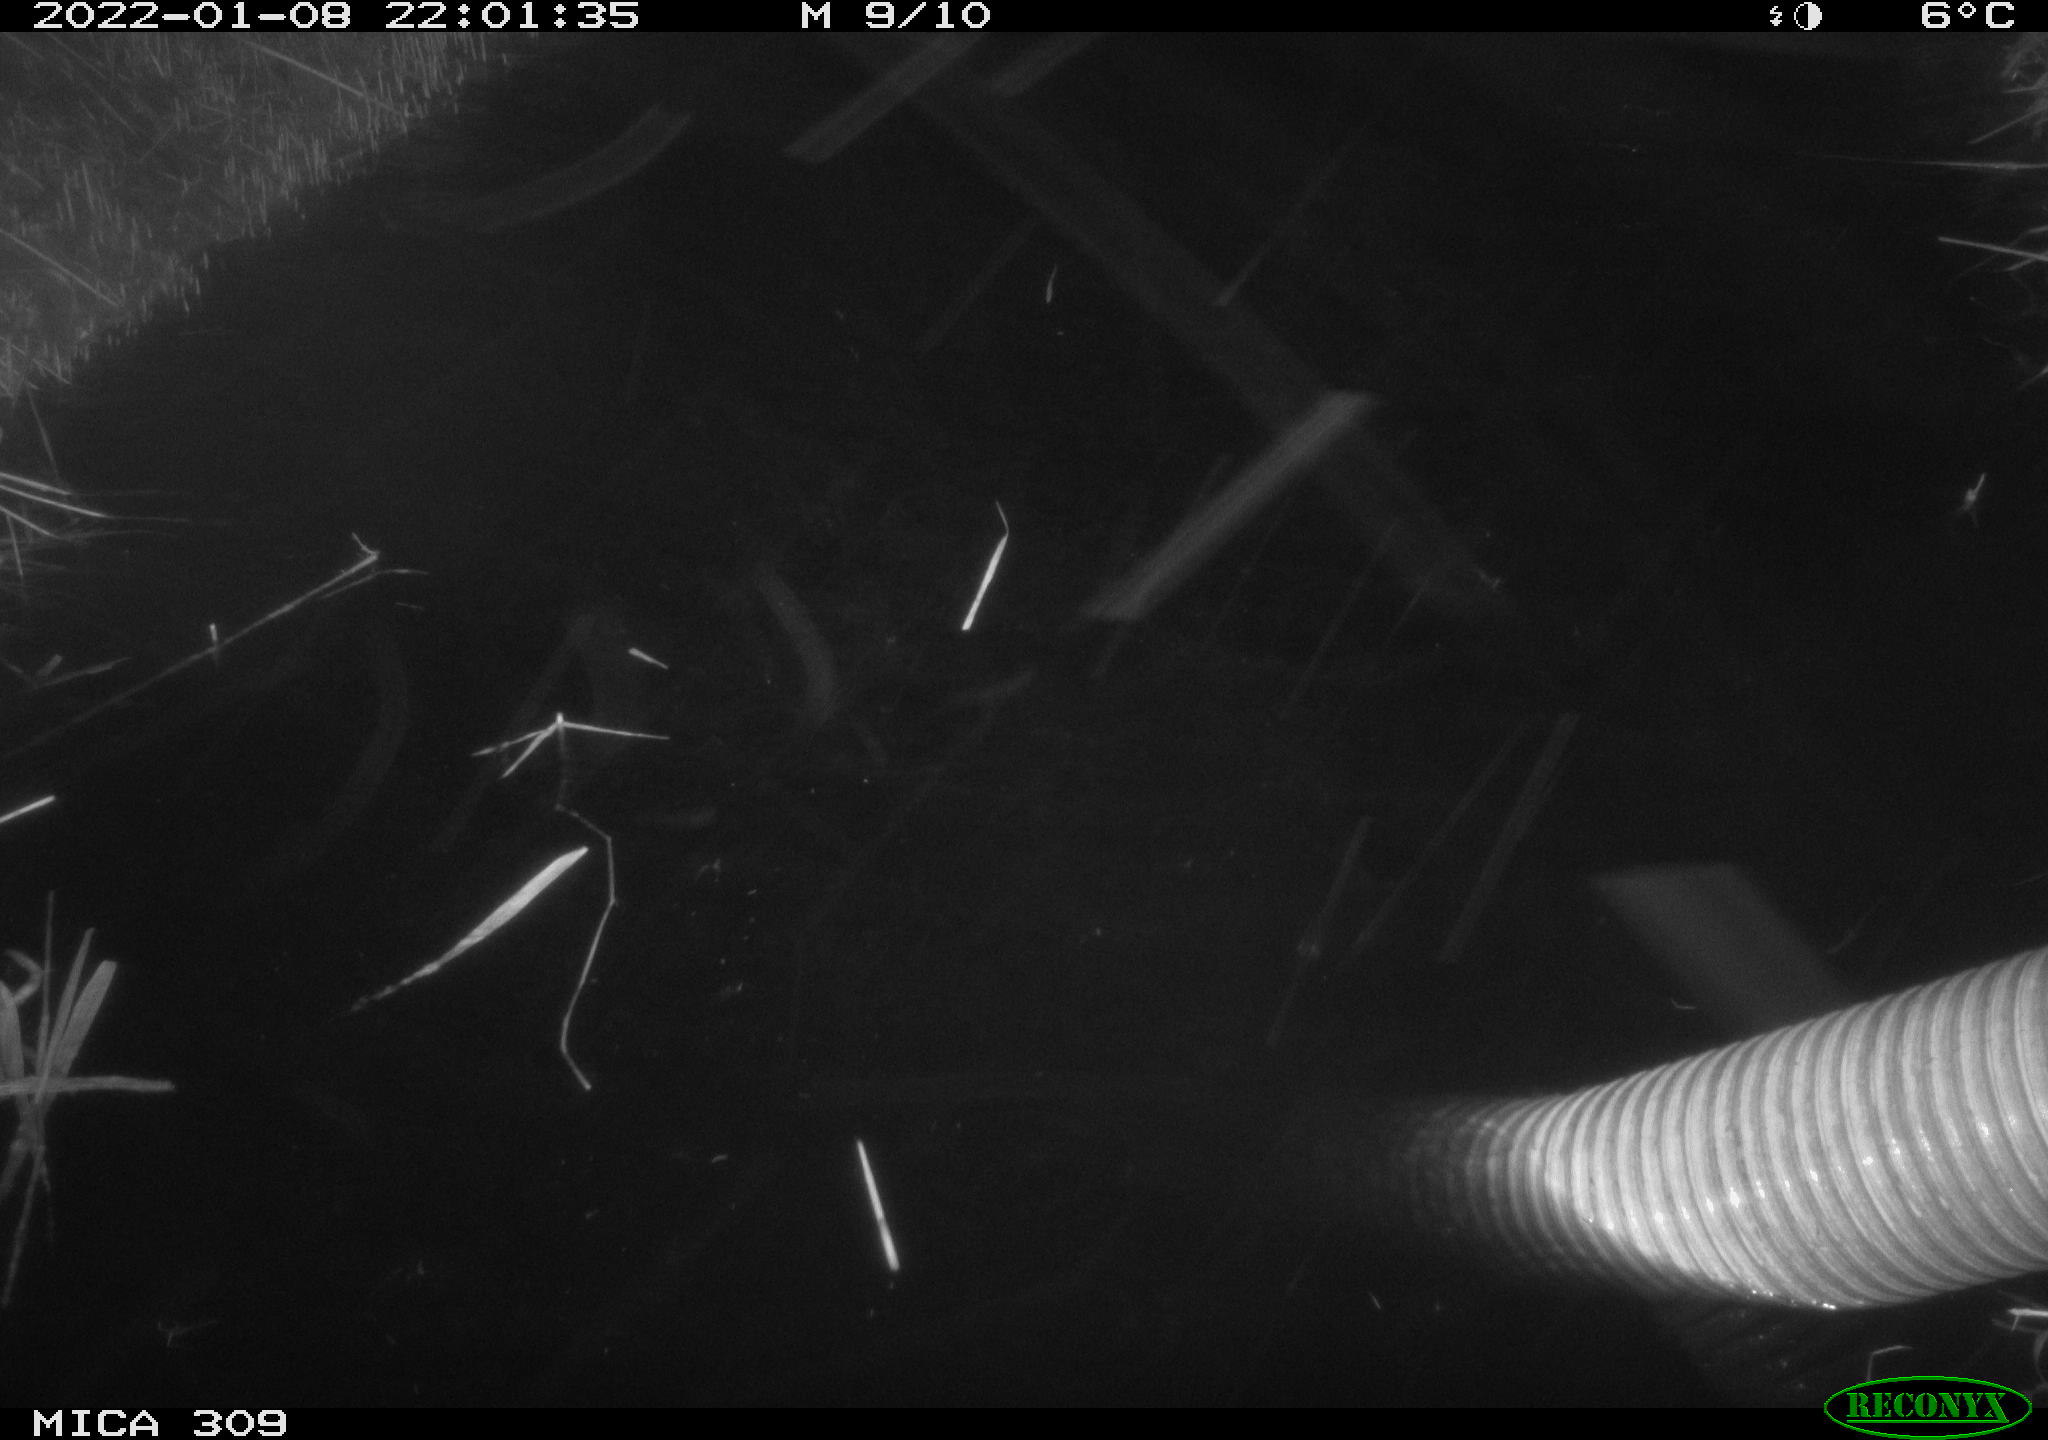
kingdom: Animalia
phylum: Chordata
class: Mammalia
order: Rodentia
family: Muridae
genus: Rattus
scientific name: Rattus norvegicus
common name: Brown rat
